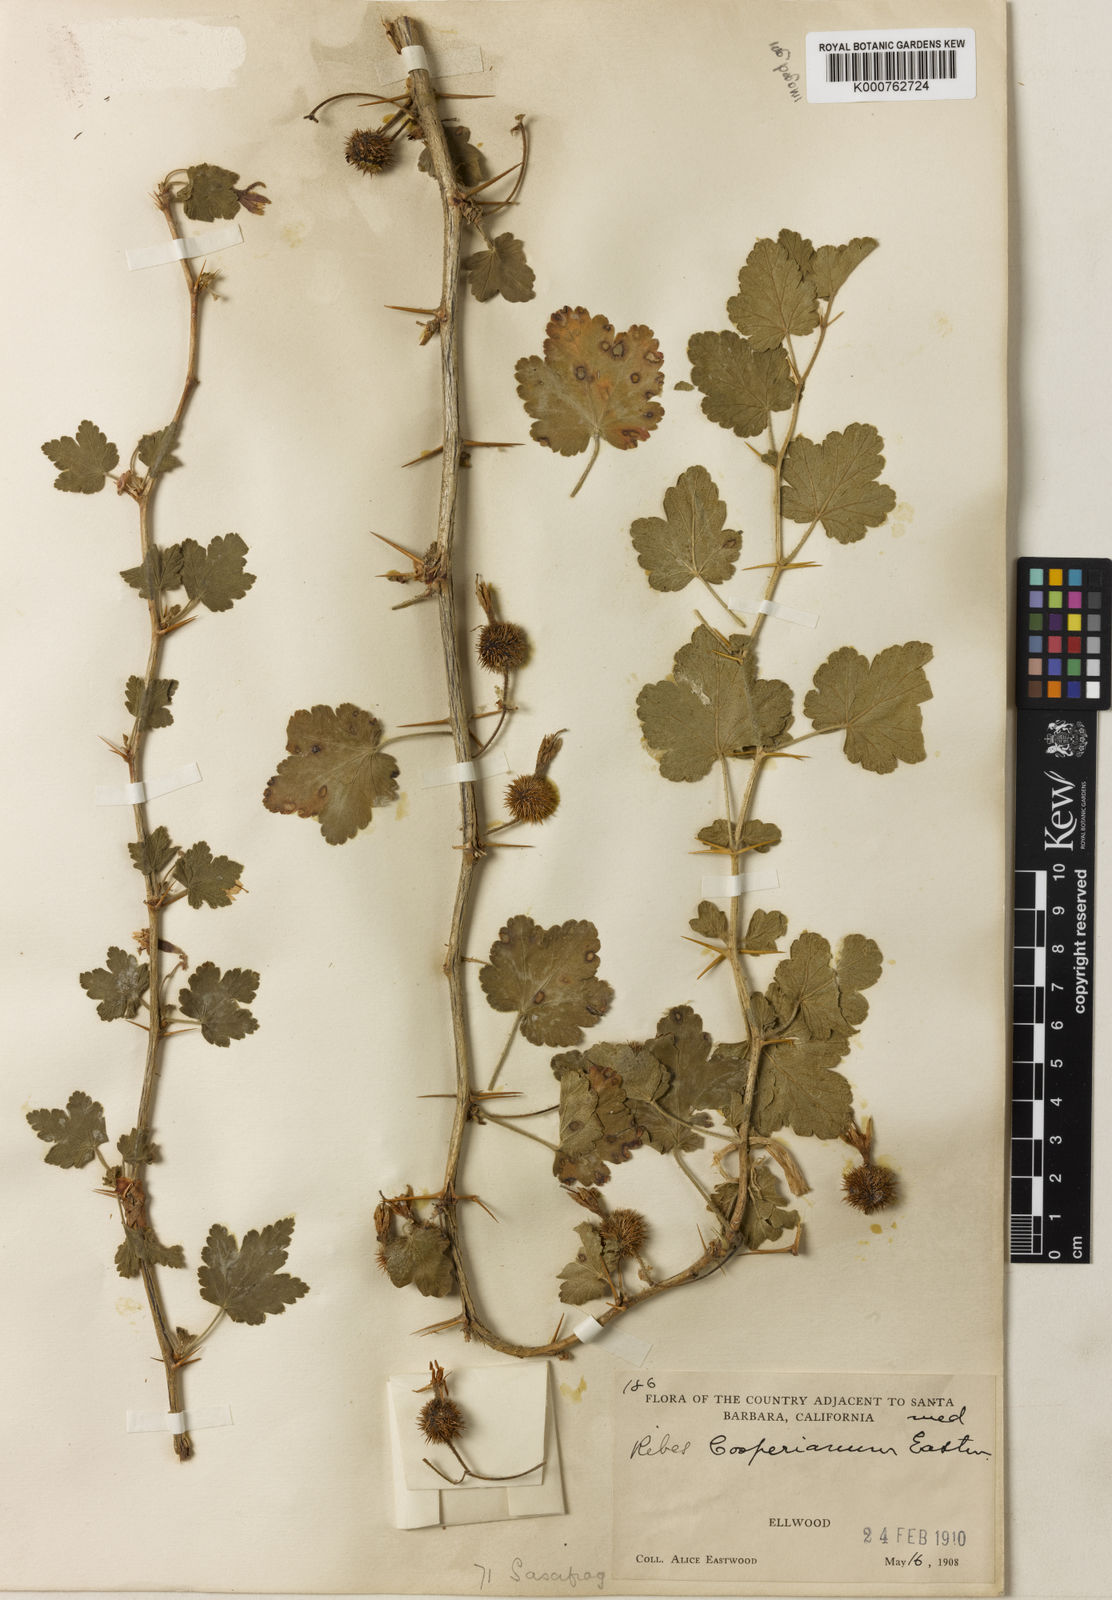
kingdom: Plantae
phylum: Tracheophyta
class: Magnoliopsida
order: Saxifragales
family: Grossulariaceae
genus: Ribes
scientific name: Ribes
